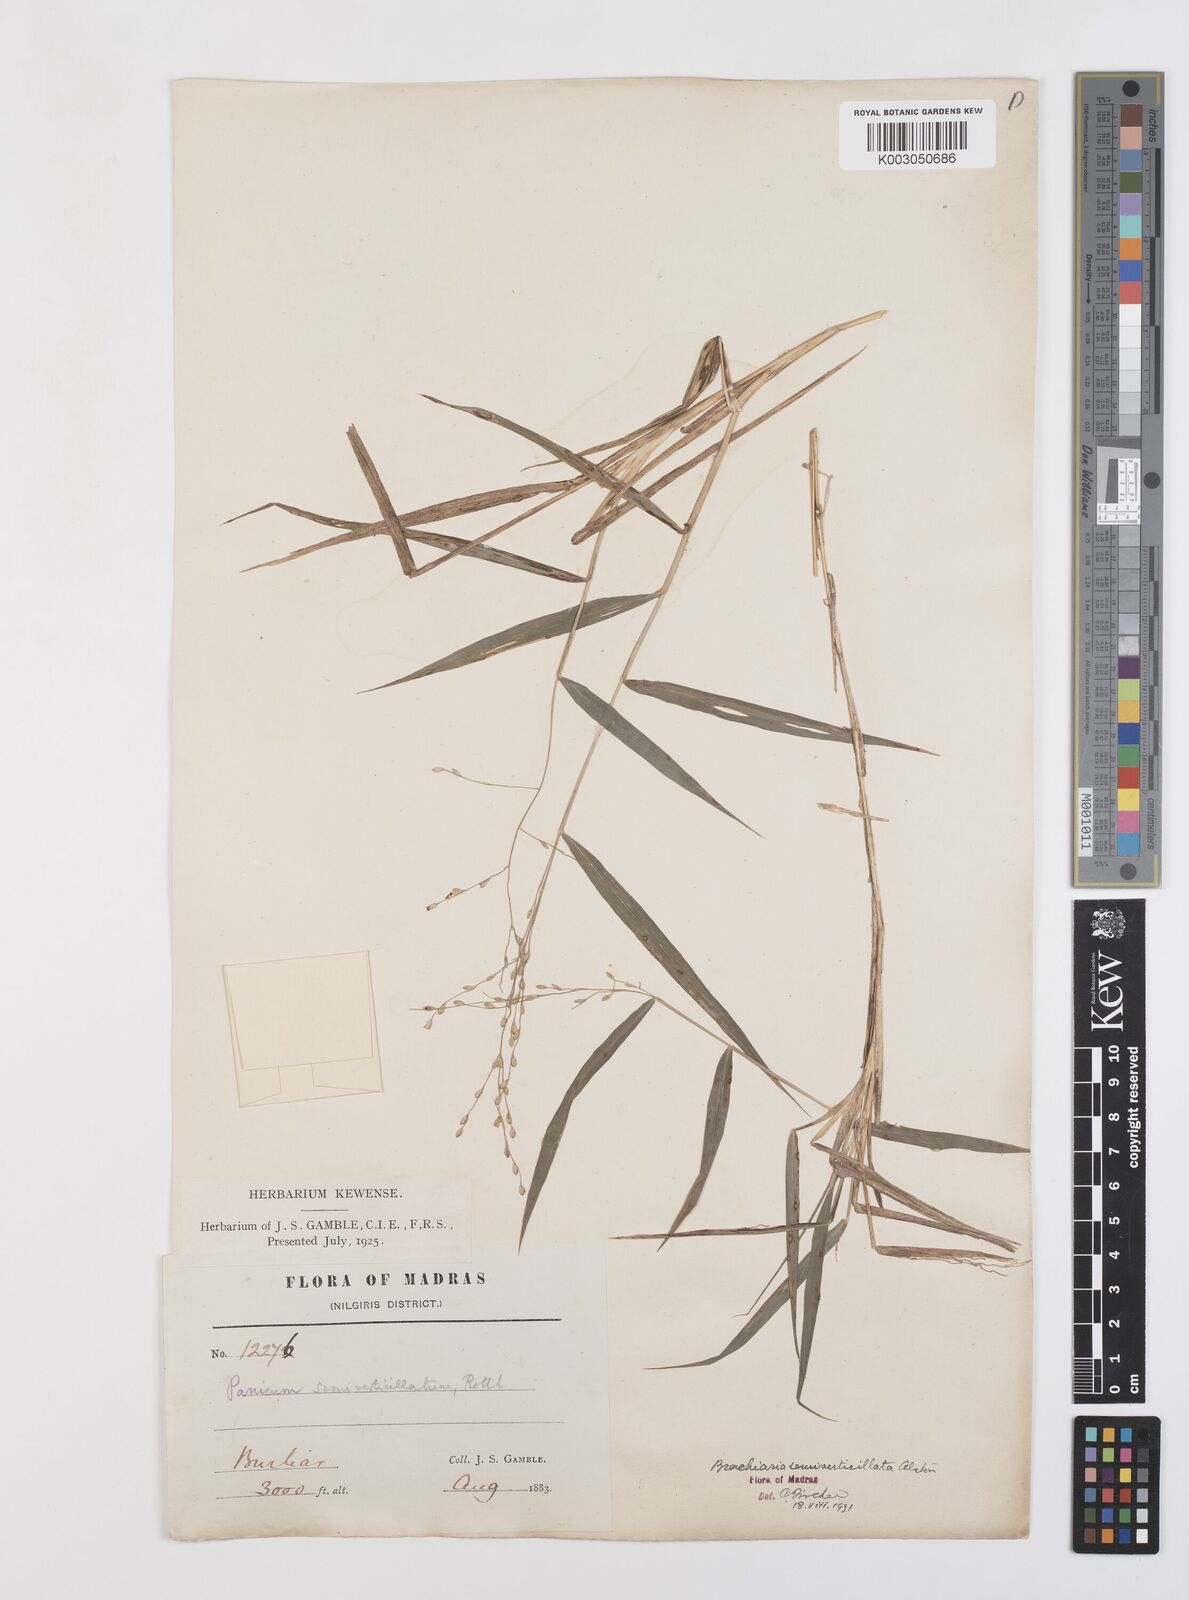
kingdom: Plantae
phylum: Tracheophyta
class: Liliopsida
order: Poales
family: Poaceae
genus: Urochloa
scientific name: Urochloa Brachiaria semiverticillata
